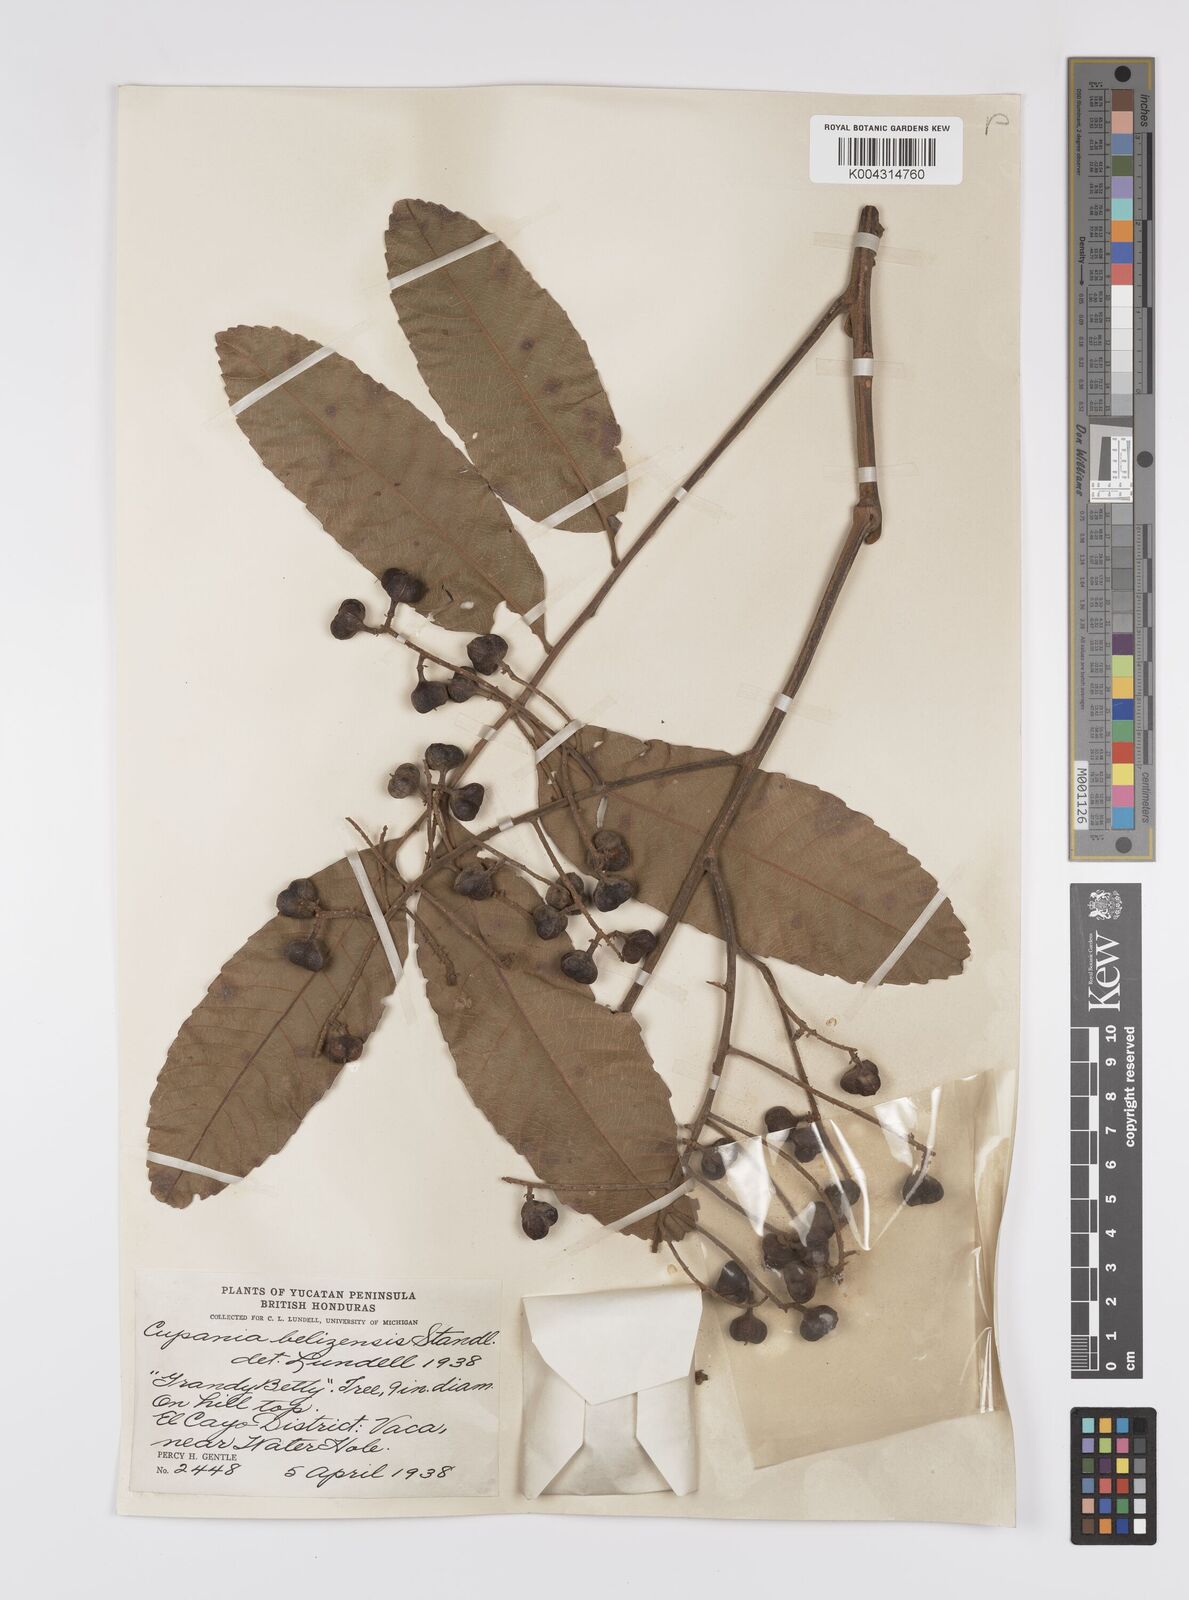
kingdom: Plantae
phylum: Tracheophyta
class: Magnoliopsida
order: Sapindales
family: Sapindaceae
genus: Cupania
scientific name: Cupania belizensis
